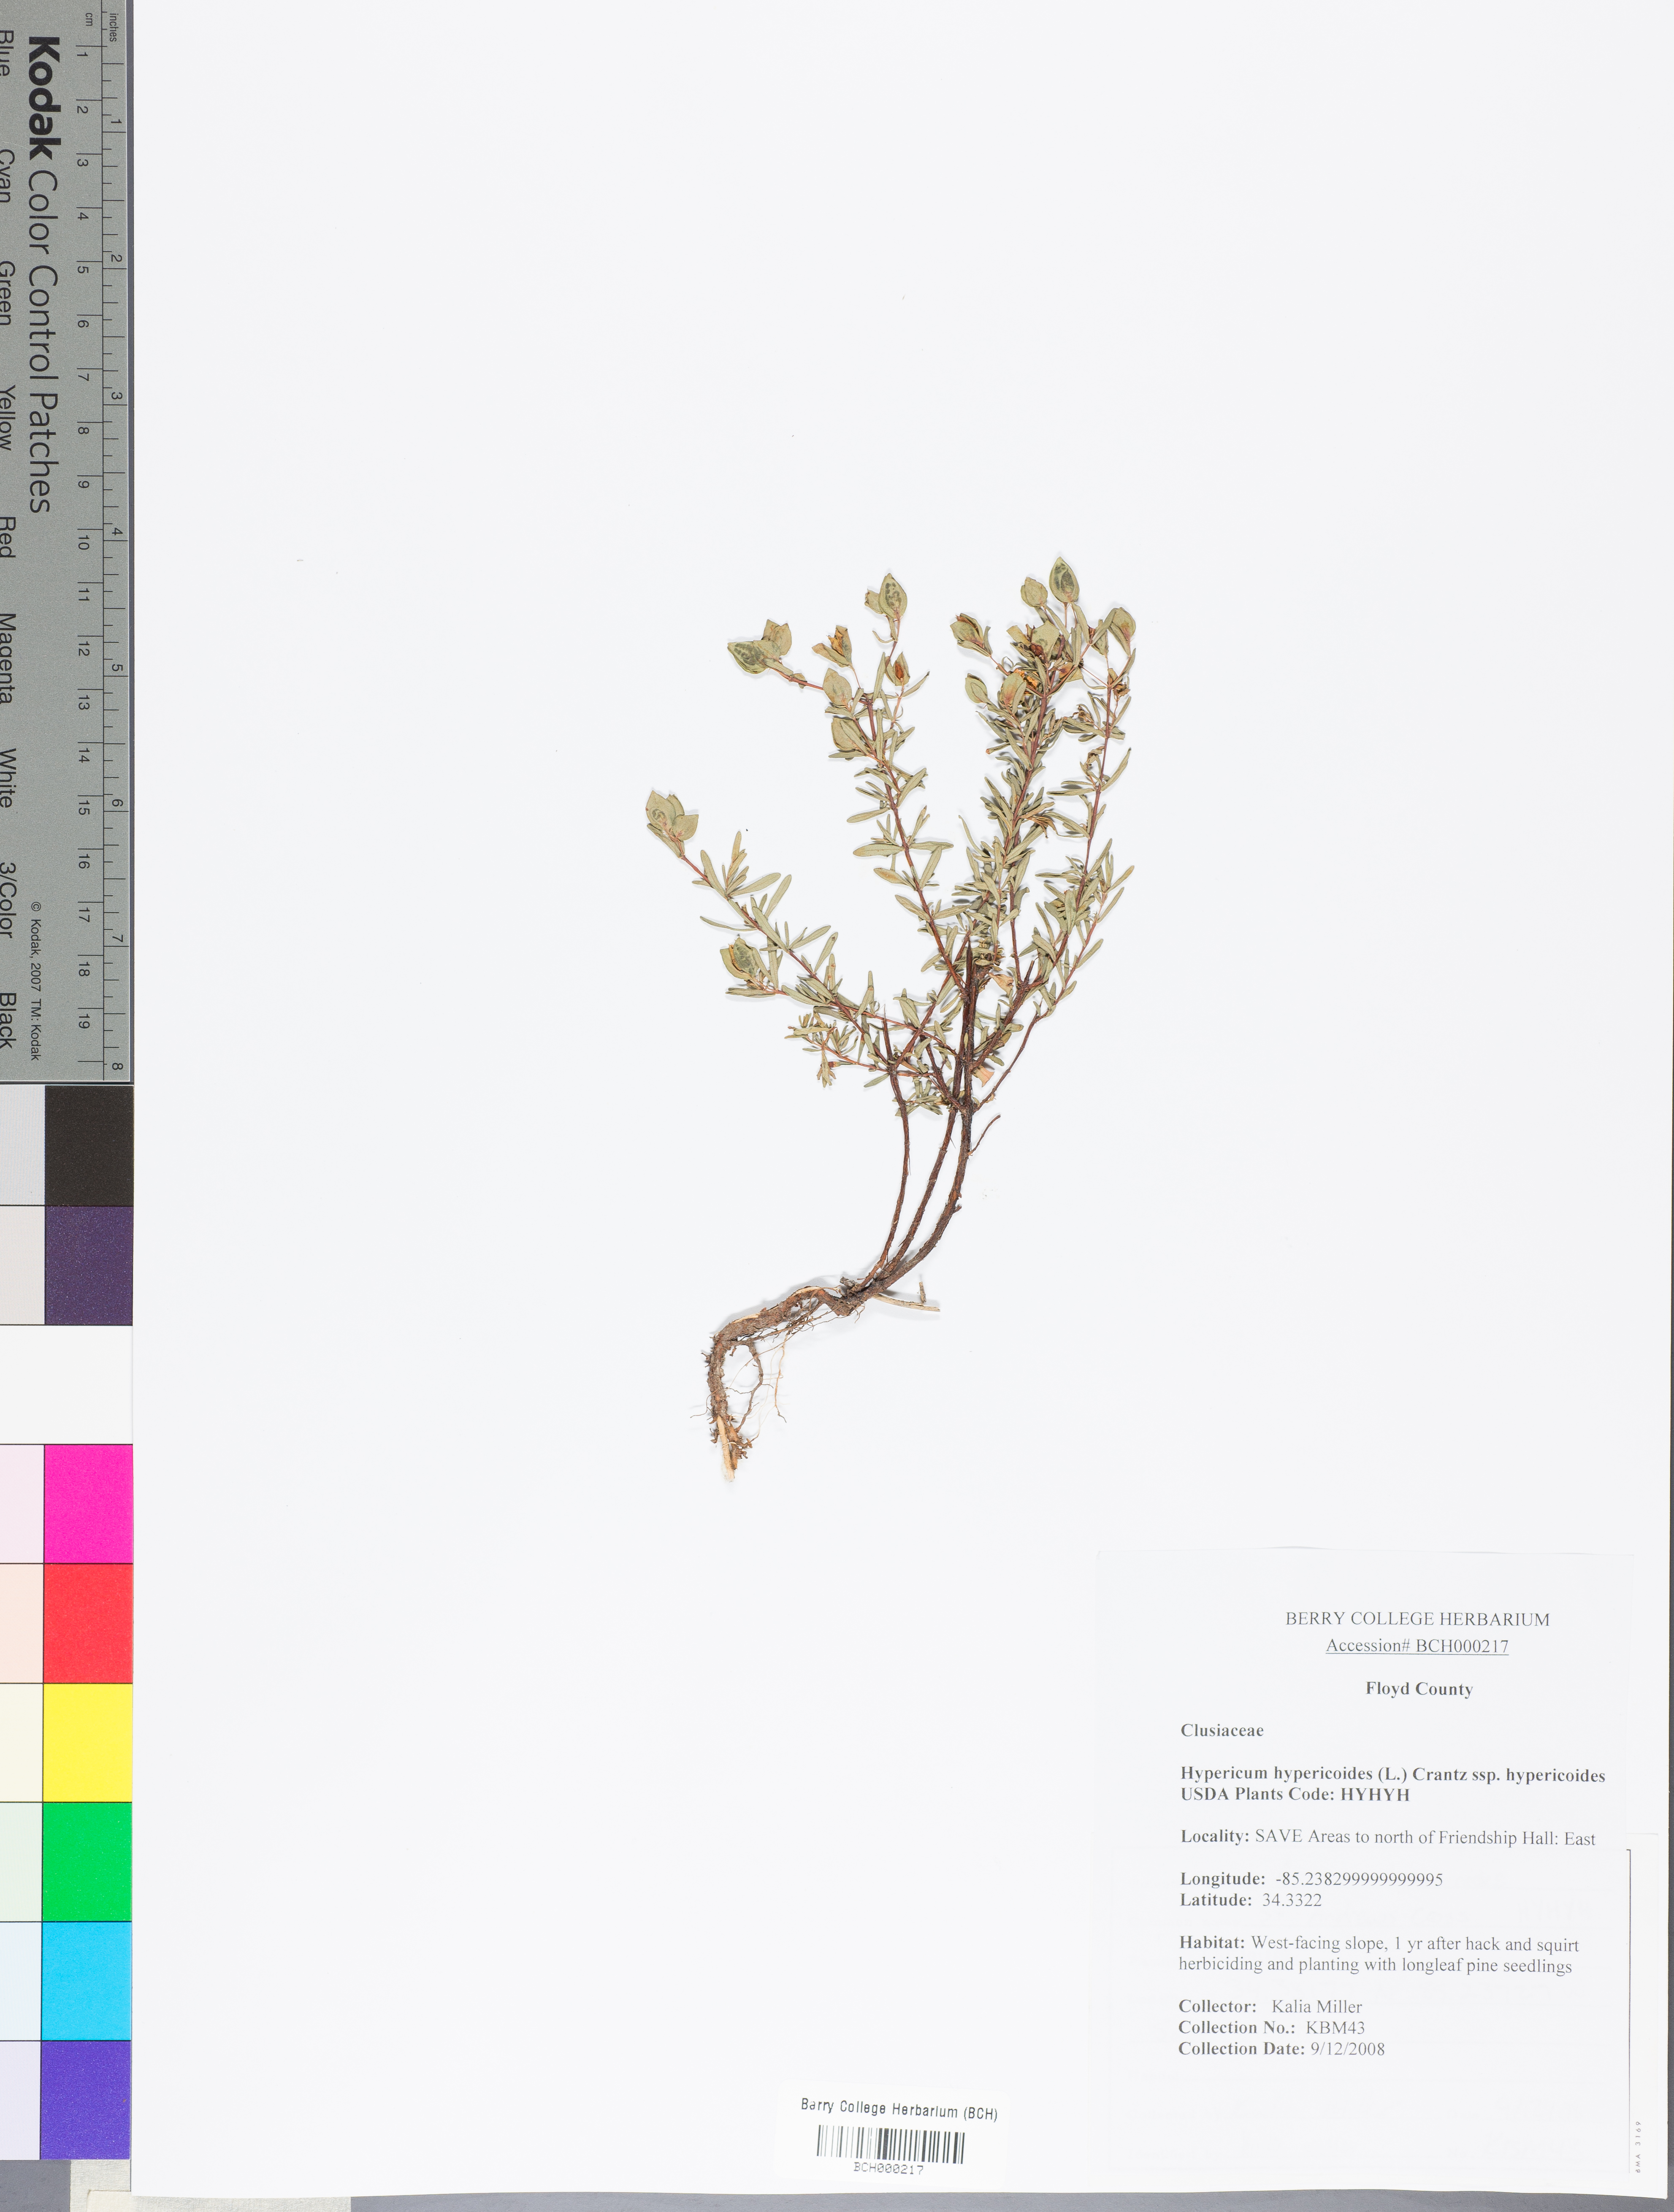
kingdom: Plantae
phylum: Tracheophyta
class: Magnoliopsida
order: Malpighiales
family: Hypericaceae
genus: Hypericum
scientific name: Hypericum hypericoides
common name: St. andrew's cross
